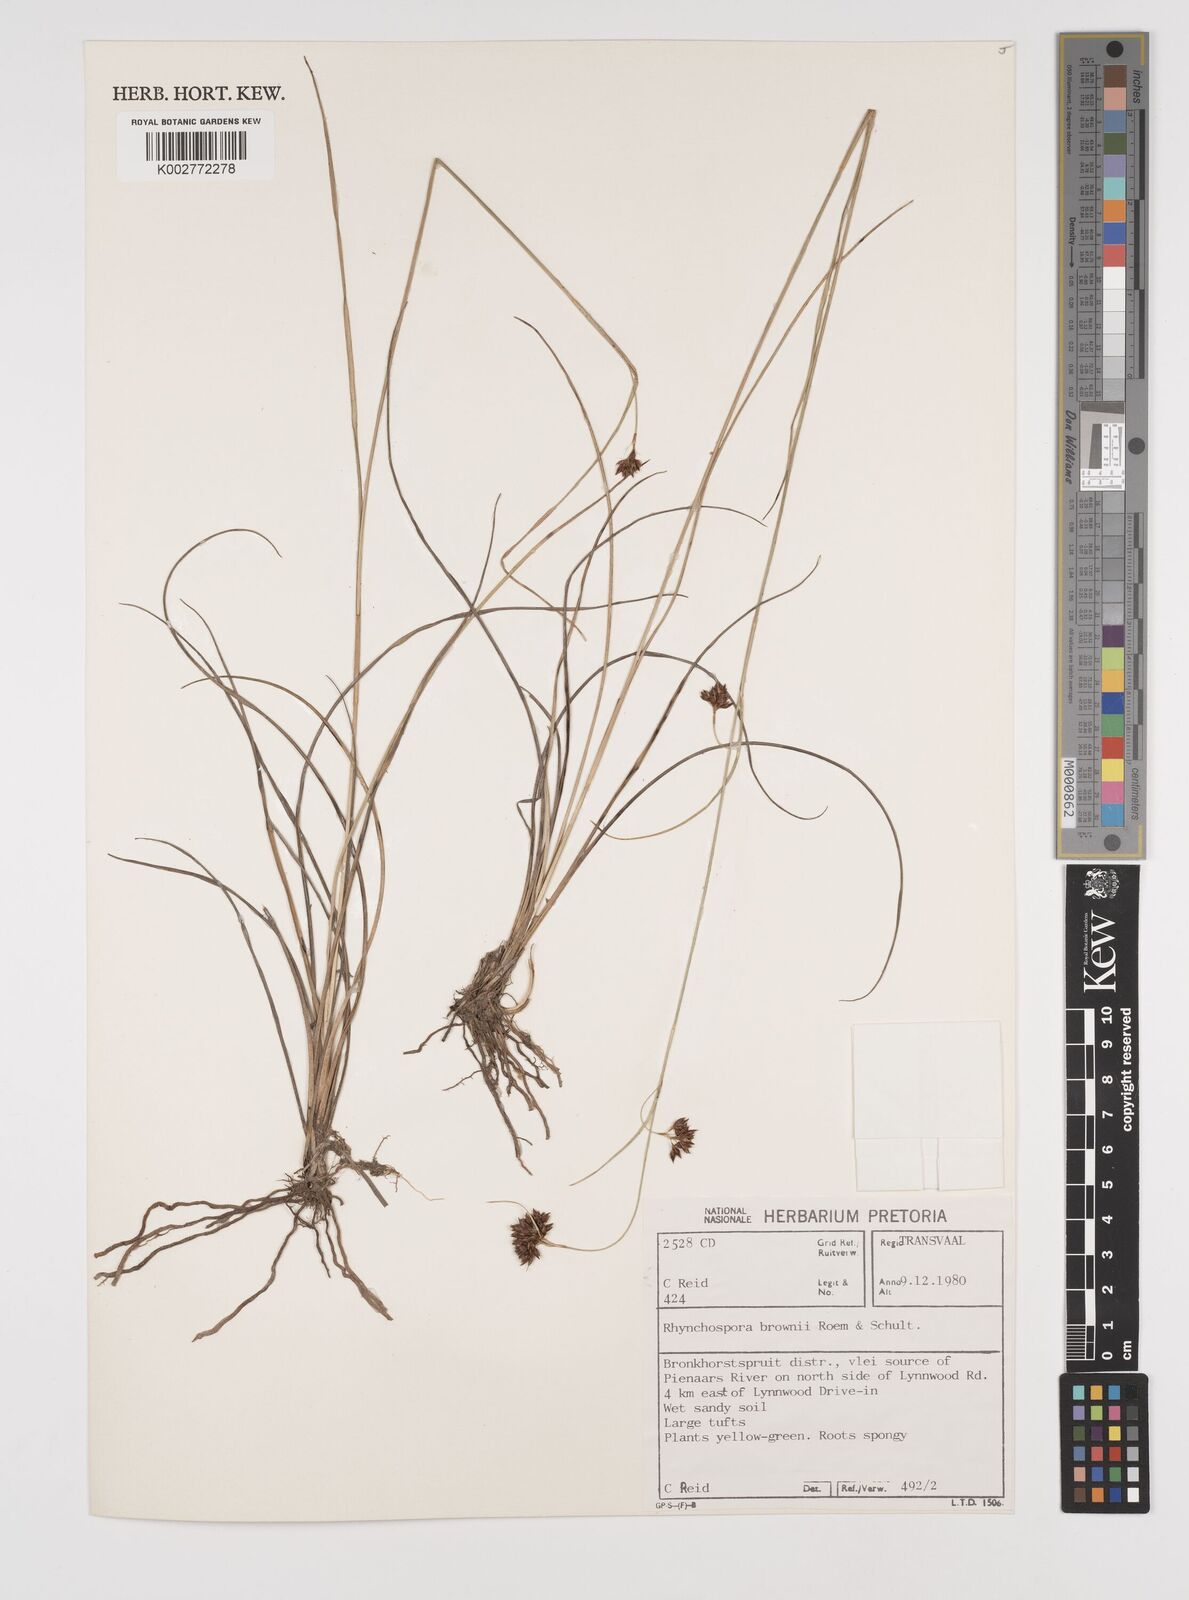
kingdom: Plantae
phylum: Tracheophyta
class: Liliopsida
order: Poales
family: Cyperaceae
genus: Rhynchospora
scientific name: Rhynchospora rugosa
